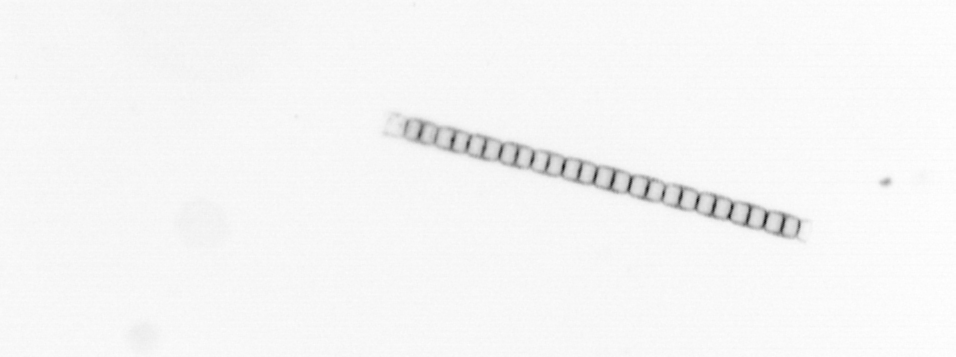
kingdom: Chromista
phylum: Ochrophyta
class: Bacillariophyceae
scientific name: Bacillariophyceae
